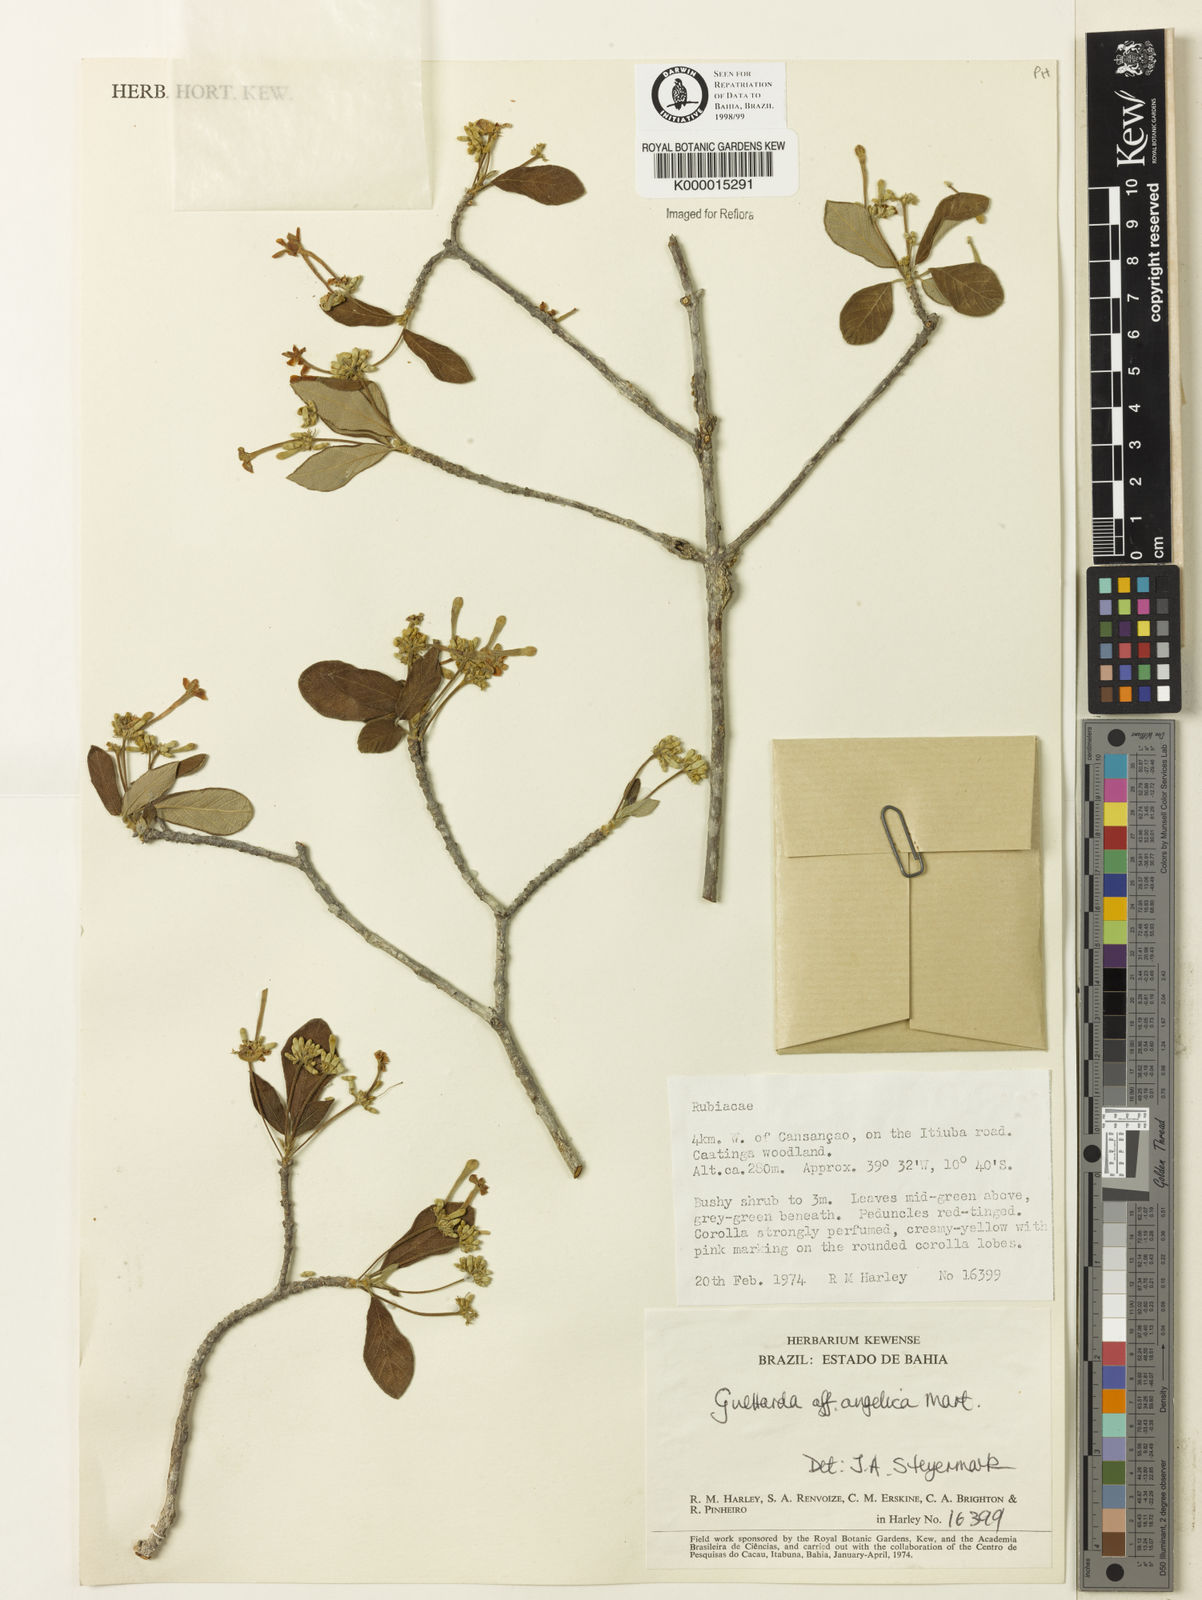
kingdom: Plantae
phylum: Tracheophyta
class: Magnoliopsida
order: Gentianales
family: Rubiaceae
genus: Guettarda
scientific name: Guettarda angelica
